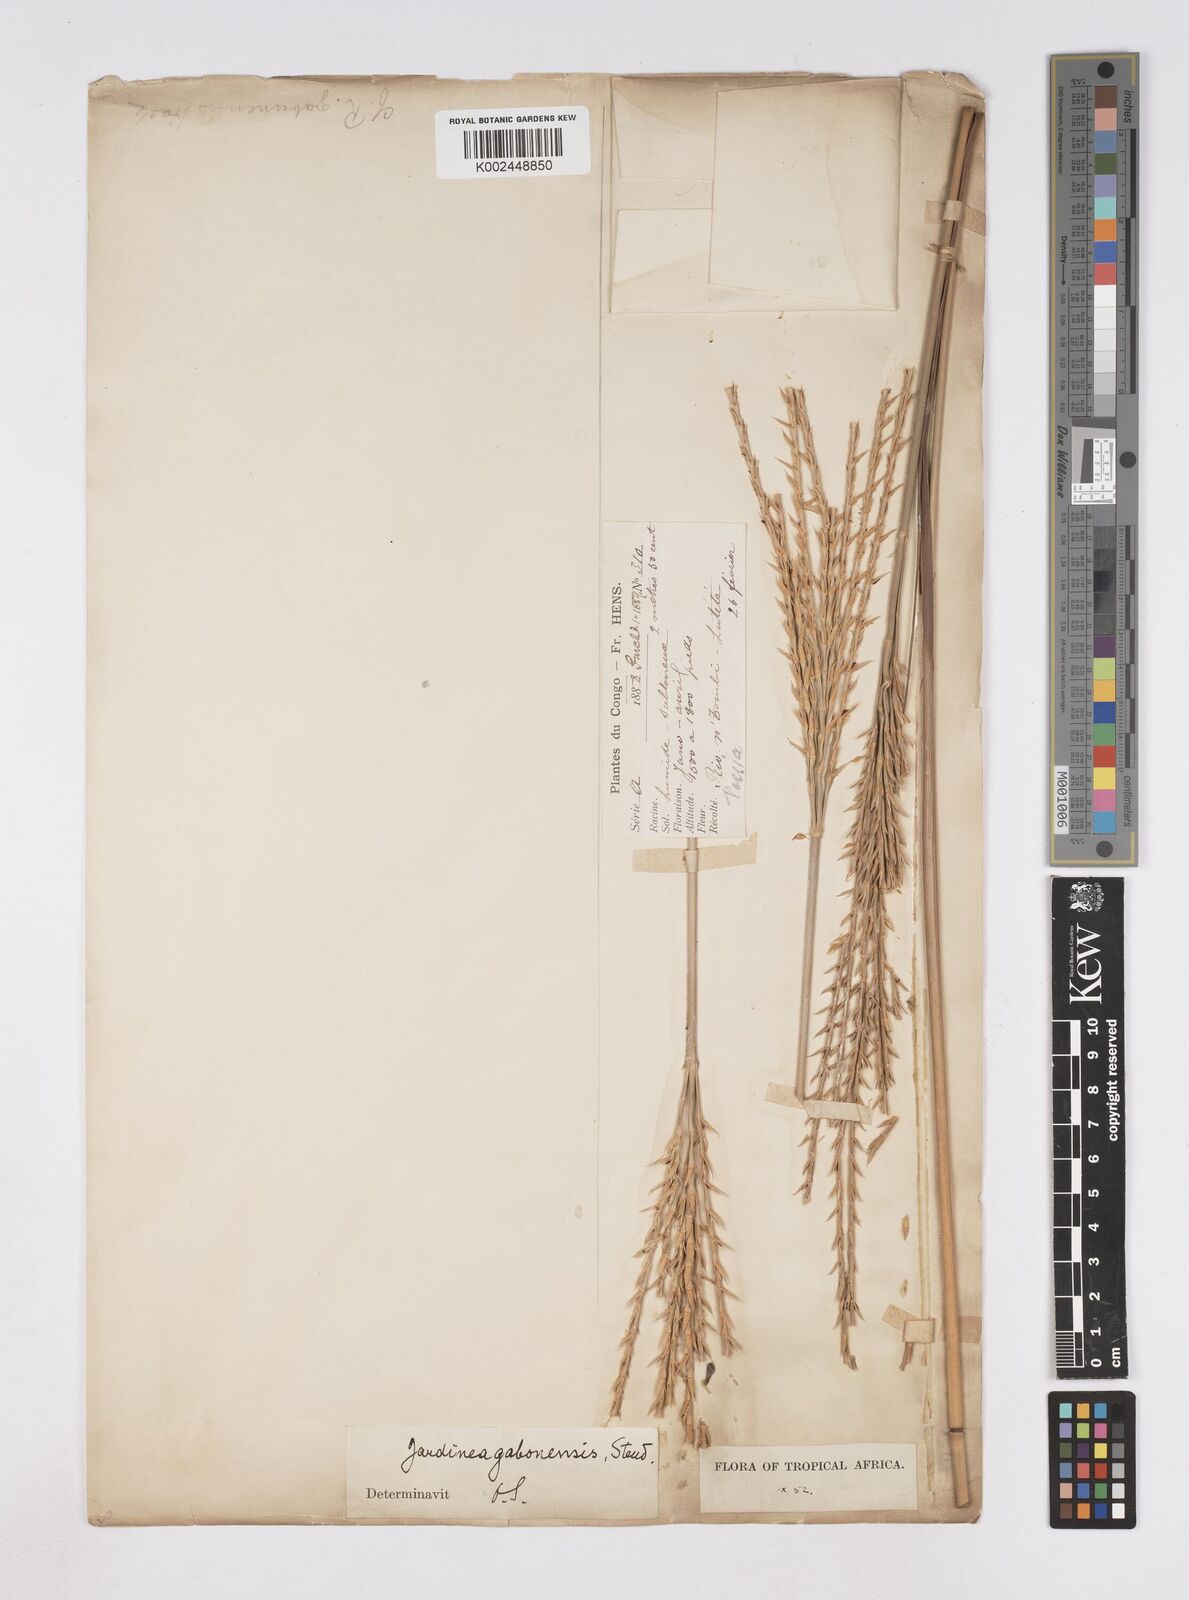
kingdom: Plantae
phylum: Tracheophyta
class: Liliopsida
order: Poales
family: Poaceae
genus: Phacelurus
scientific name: Phacelurus gabonensis
